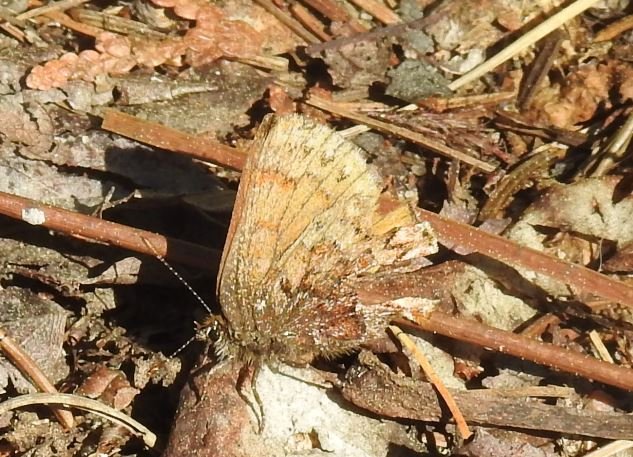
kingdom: Animalia
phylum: Arthropoda
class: Insecta
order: Lepidoptera
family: Lycaenidae
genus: Incisalia
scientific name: Incisalia eryphon
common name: Western Pine Elfin
